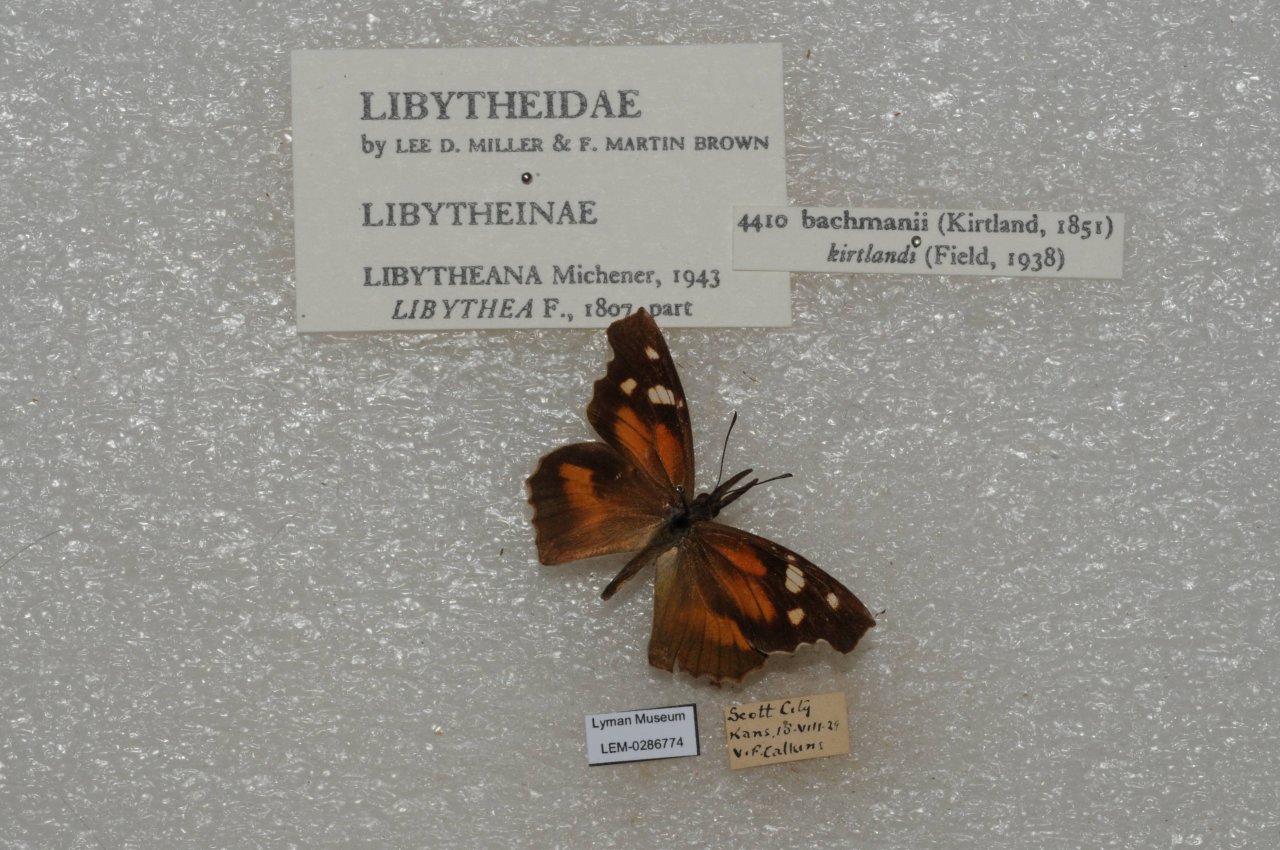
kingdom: Animalia
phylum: Arthropoda
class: Insecta
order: Lepidoptera
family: Nymphalidae
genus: Libytheana
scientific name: Libytheana carinenta
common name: American Snout
